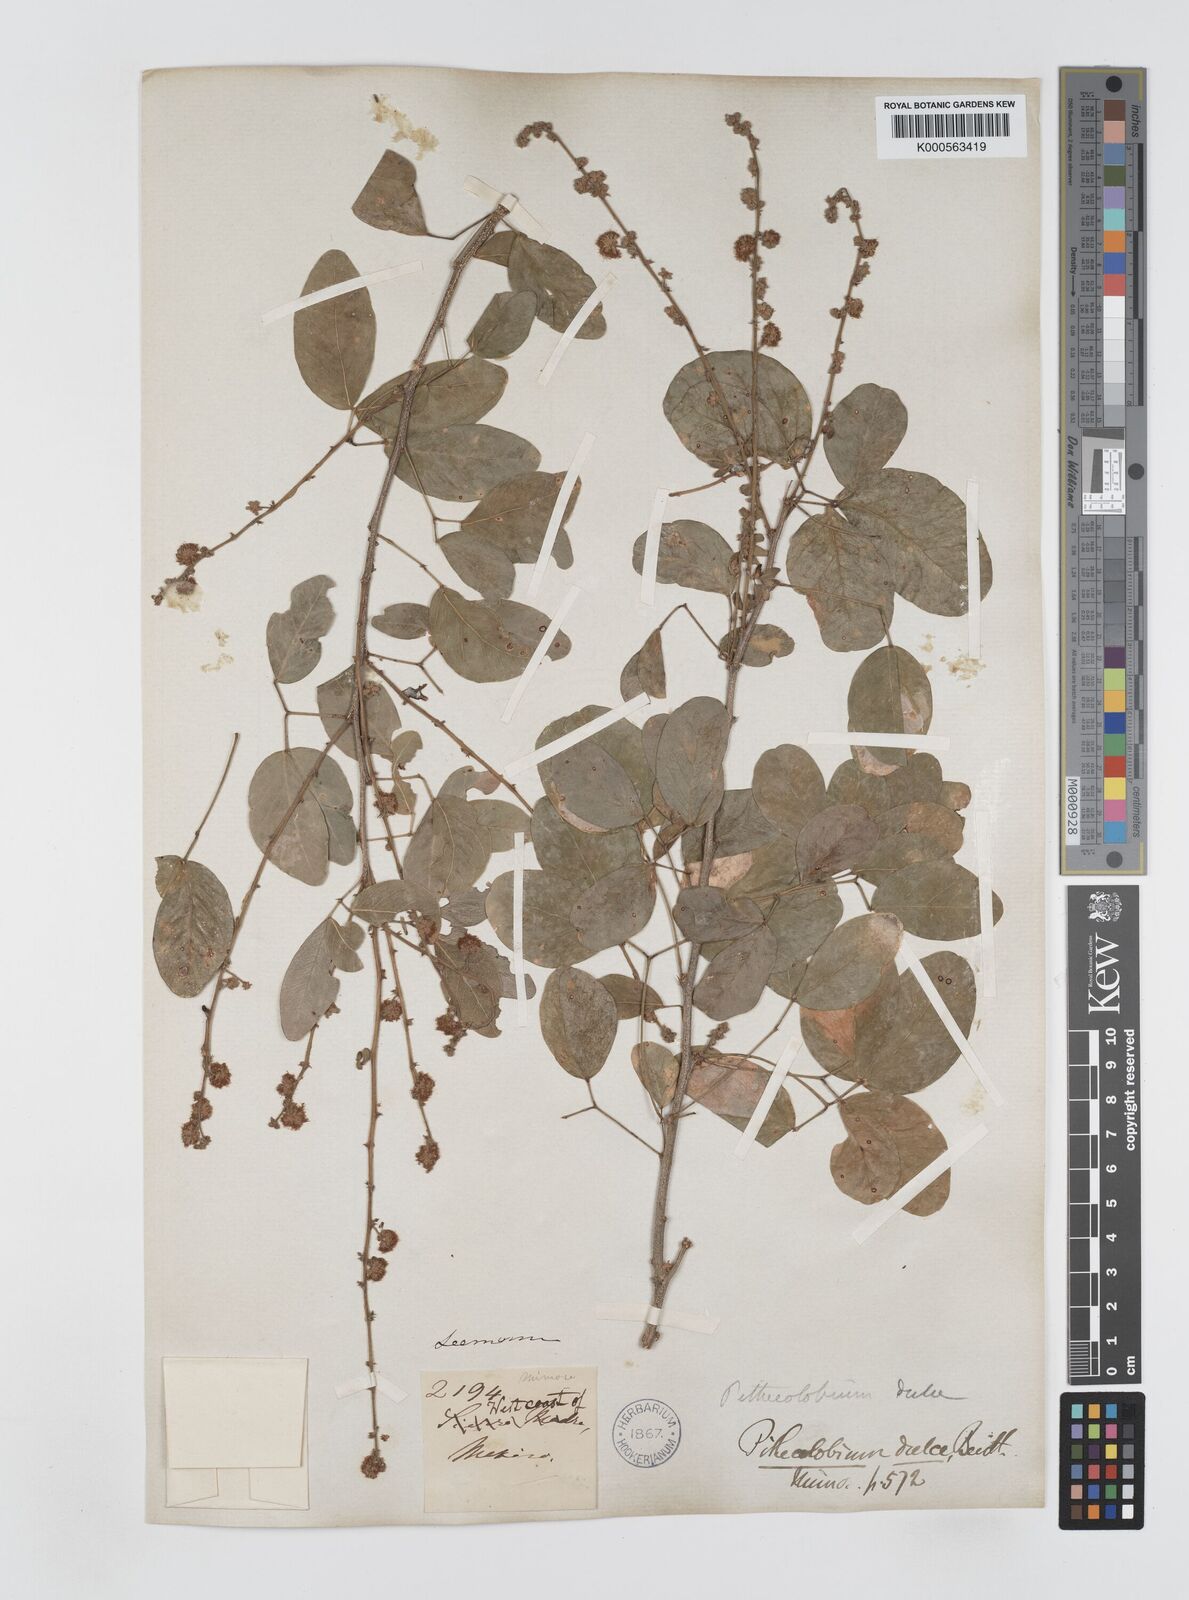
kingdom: Plantae
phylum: Tracheophyta
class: Magnoliopsida
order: Fabales
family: Fabaceae
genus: Pithecellobium
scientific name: Pithecellobium dulce
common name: Monkeypod
